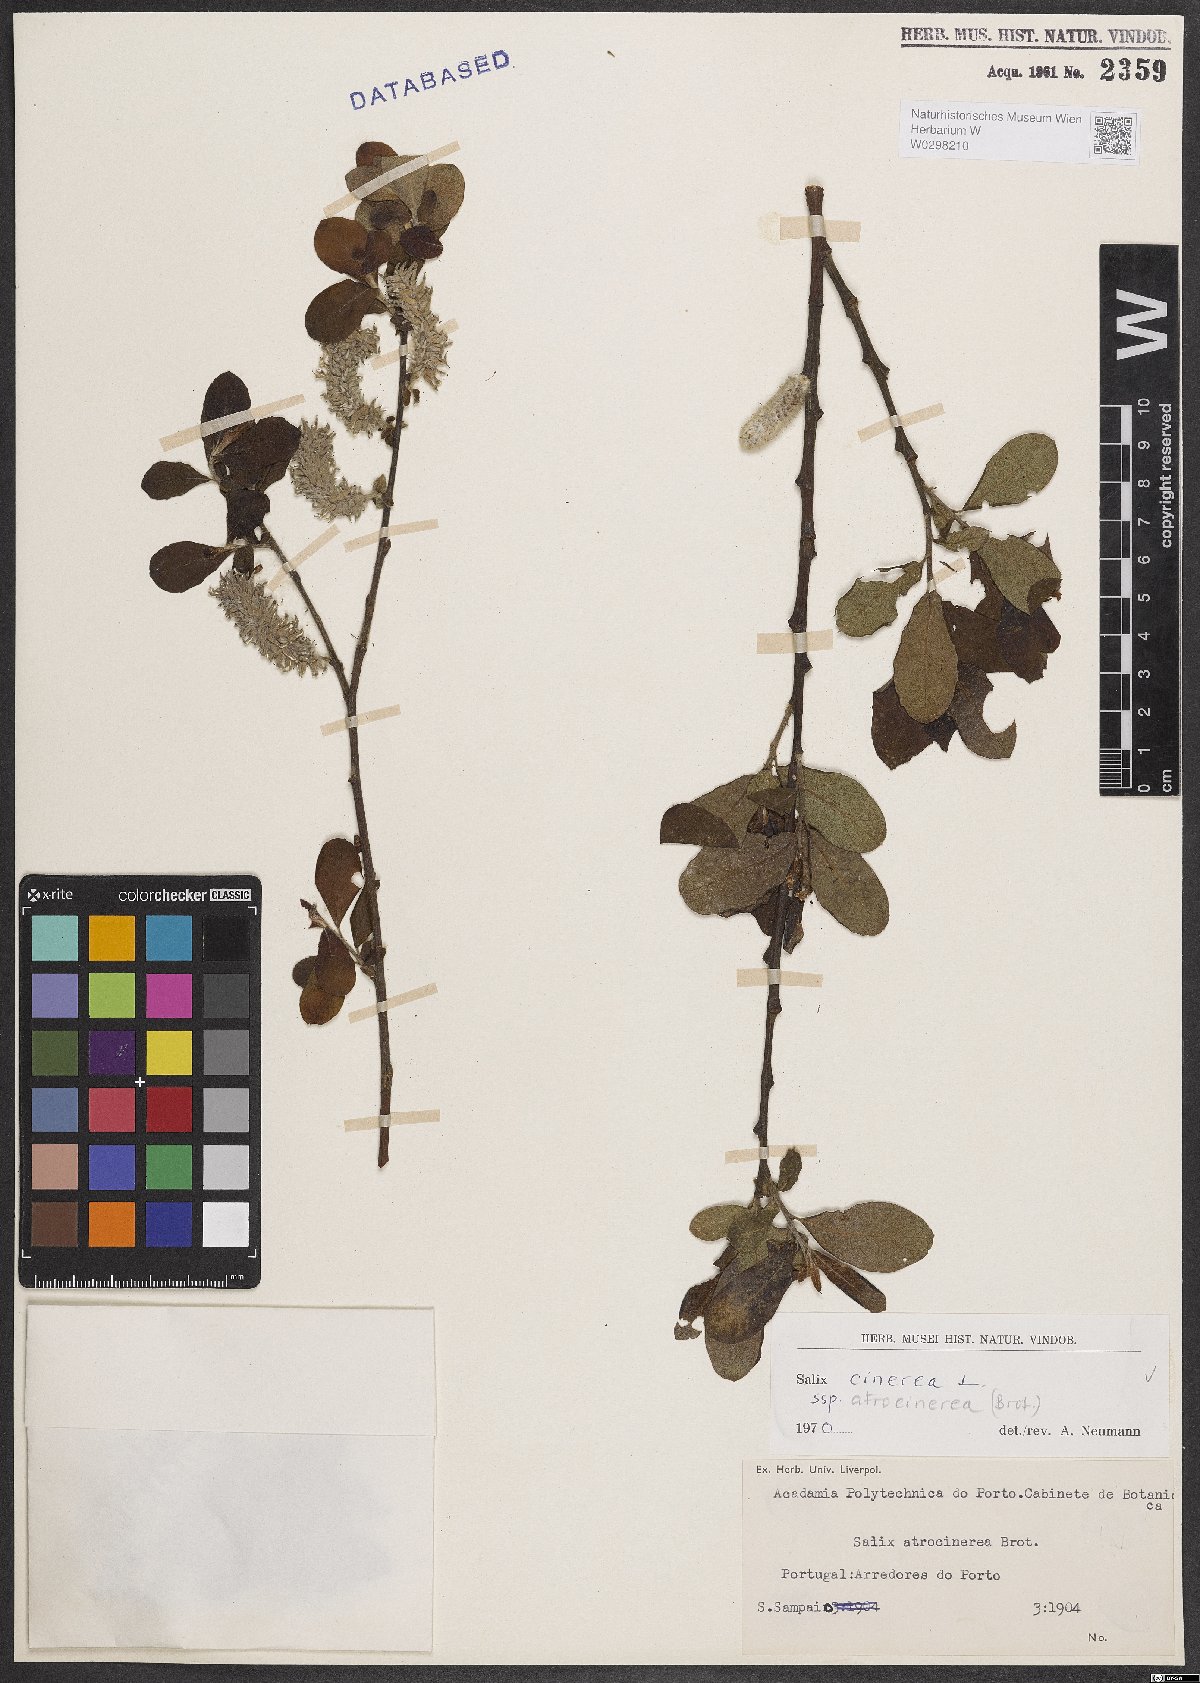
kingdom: Plantae
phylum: Tracheophyta
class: Magnoliopsida
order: Malpighiales
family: Salicaceae
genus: Salix
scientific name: Salix atrocinerea
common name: Rusty willow
